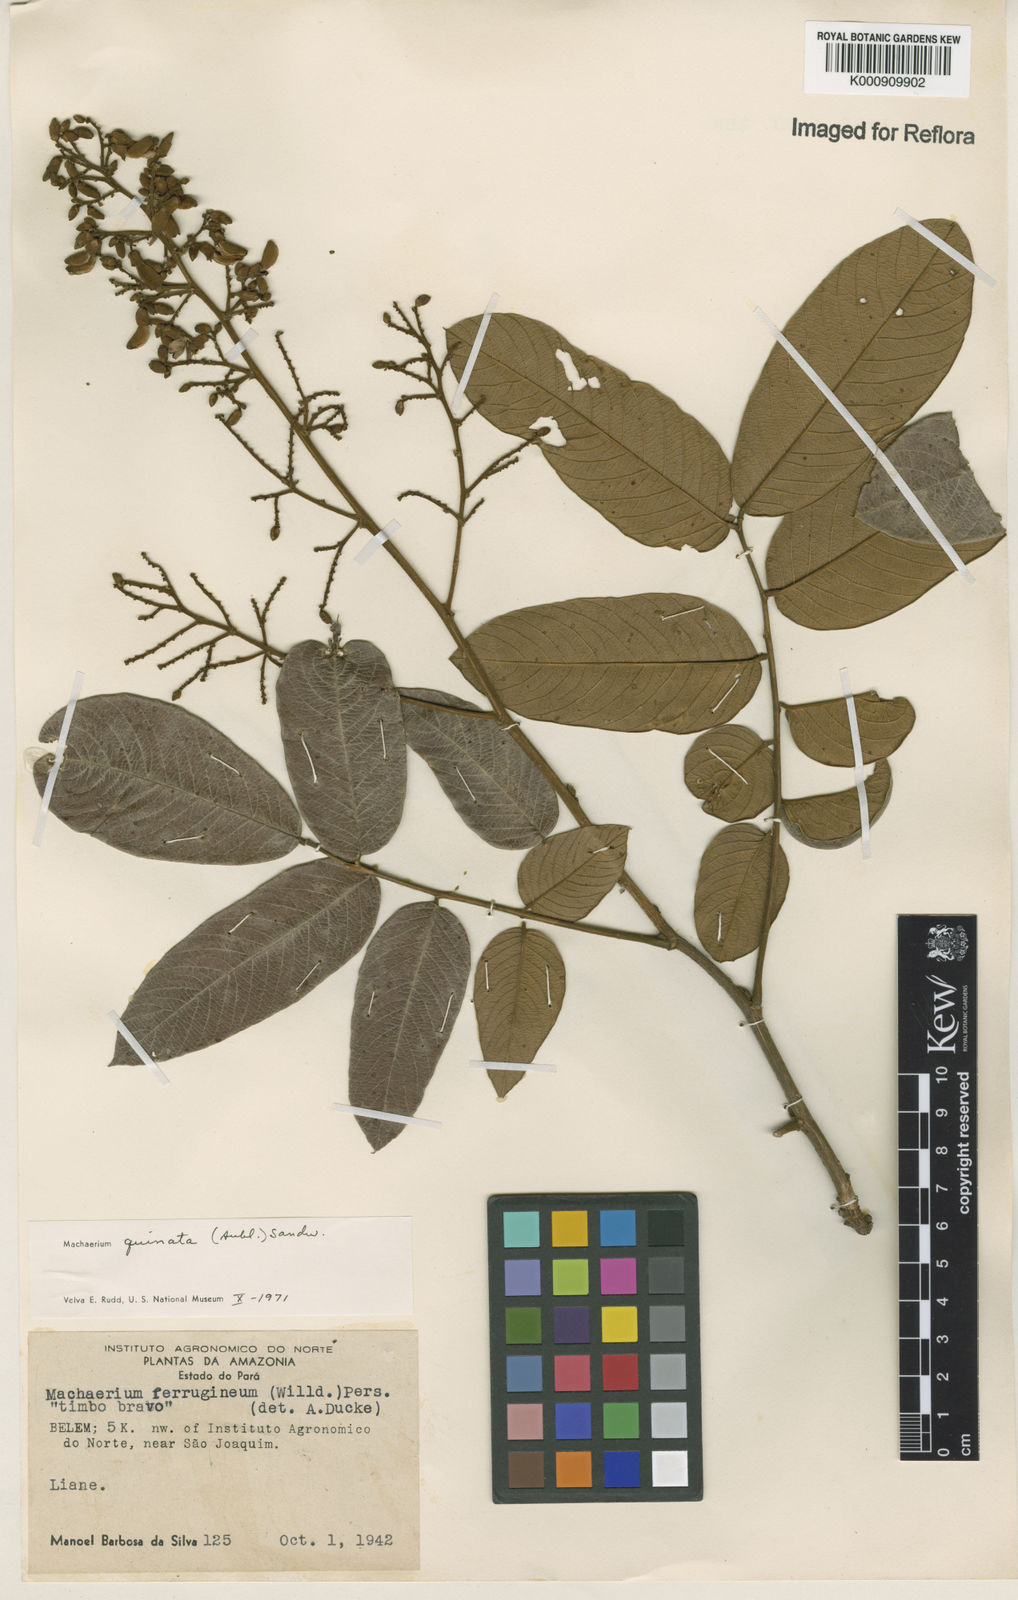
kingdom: Plantae
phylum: Tracheophyta
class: Magnoliopsida
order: Fabales
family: Fabaceae
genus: Machaerium
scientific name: Machaerium quinata
